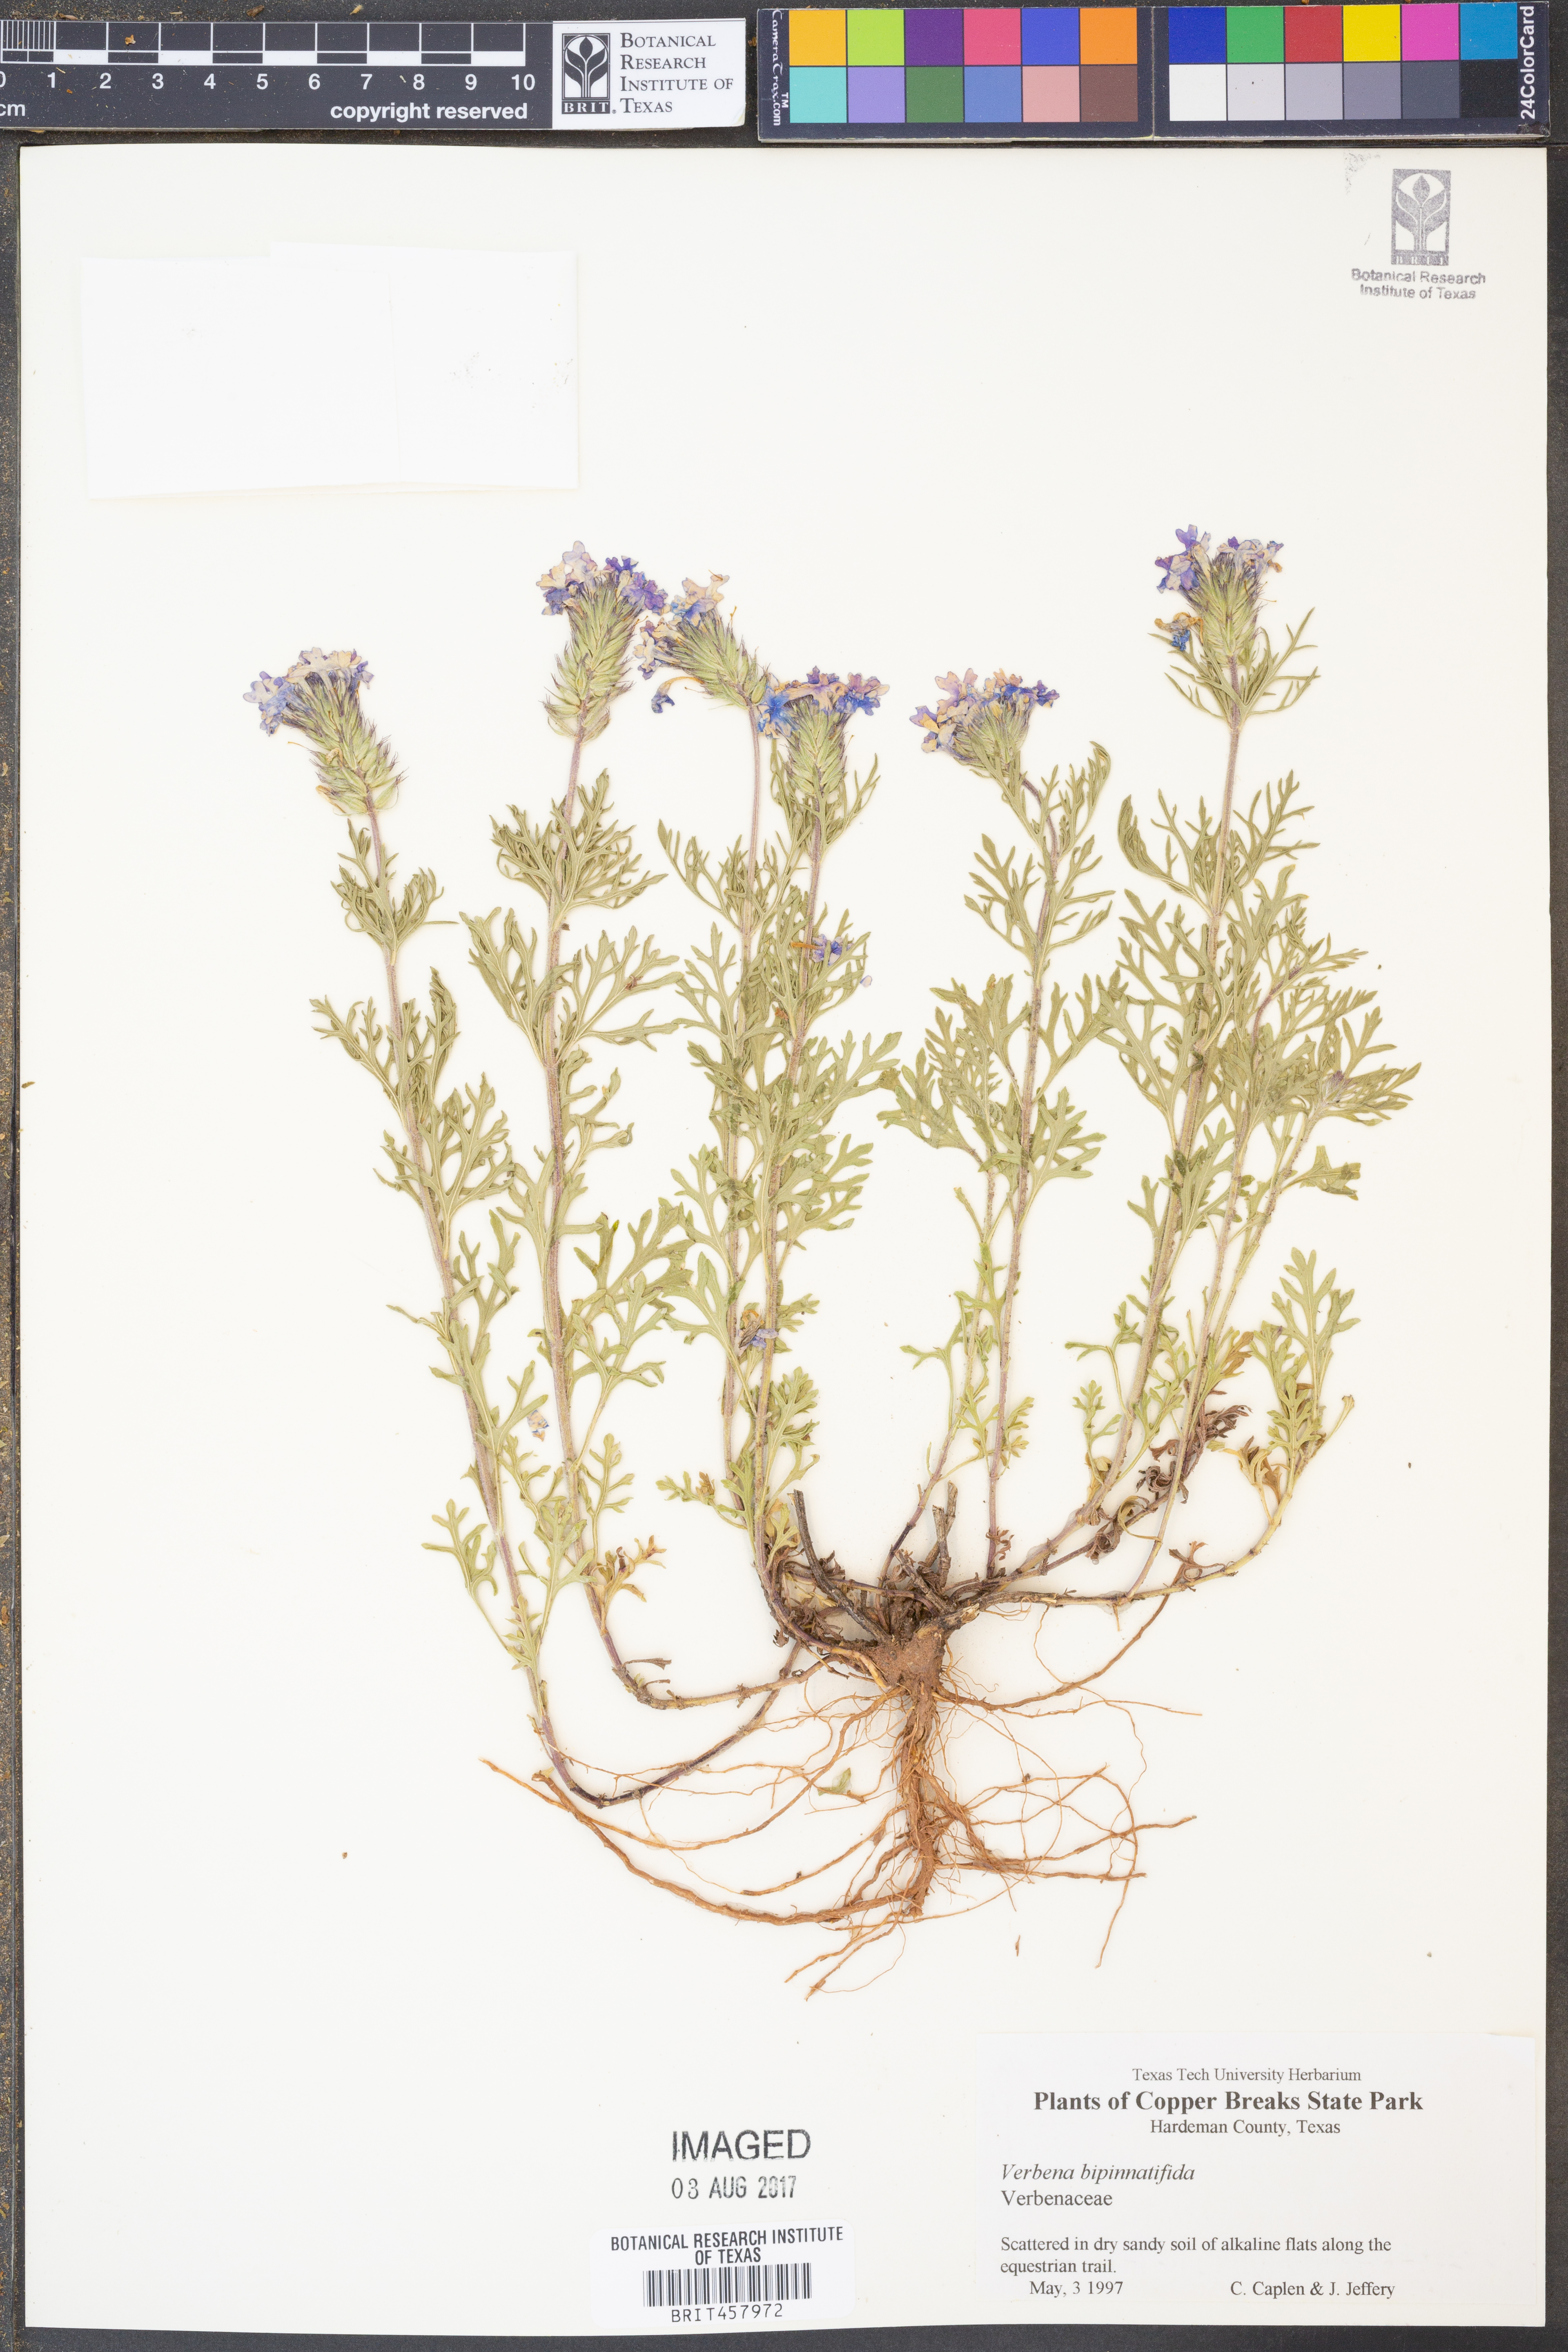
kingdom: Plantae
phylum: Tracheophyta
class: Magnoliopsida
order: Lamiales
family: Verbenaceae
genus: Verbena
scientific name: Verbena bipinnatifida
